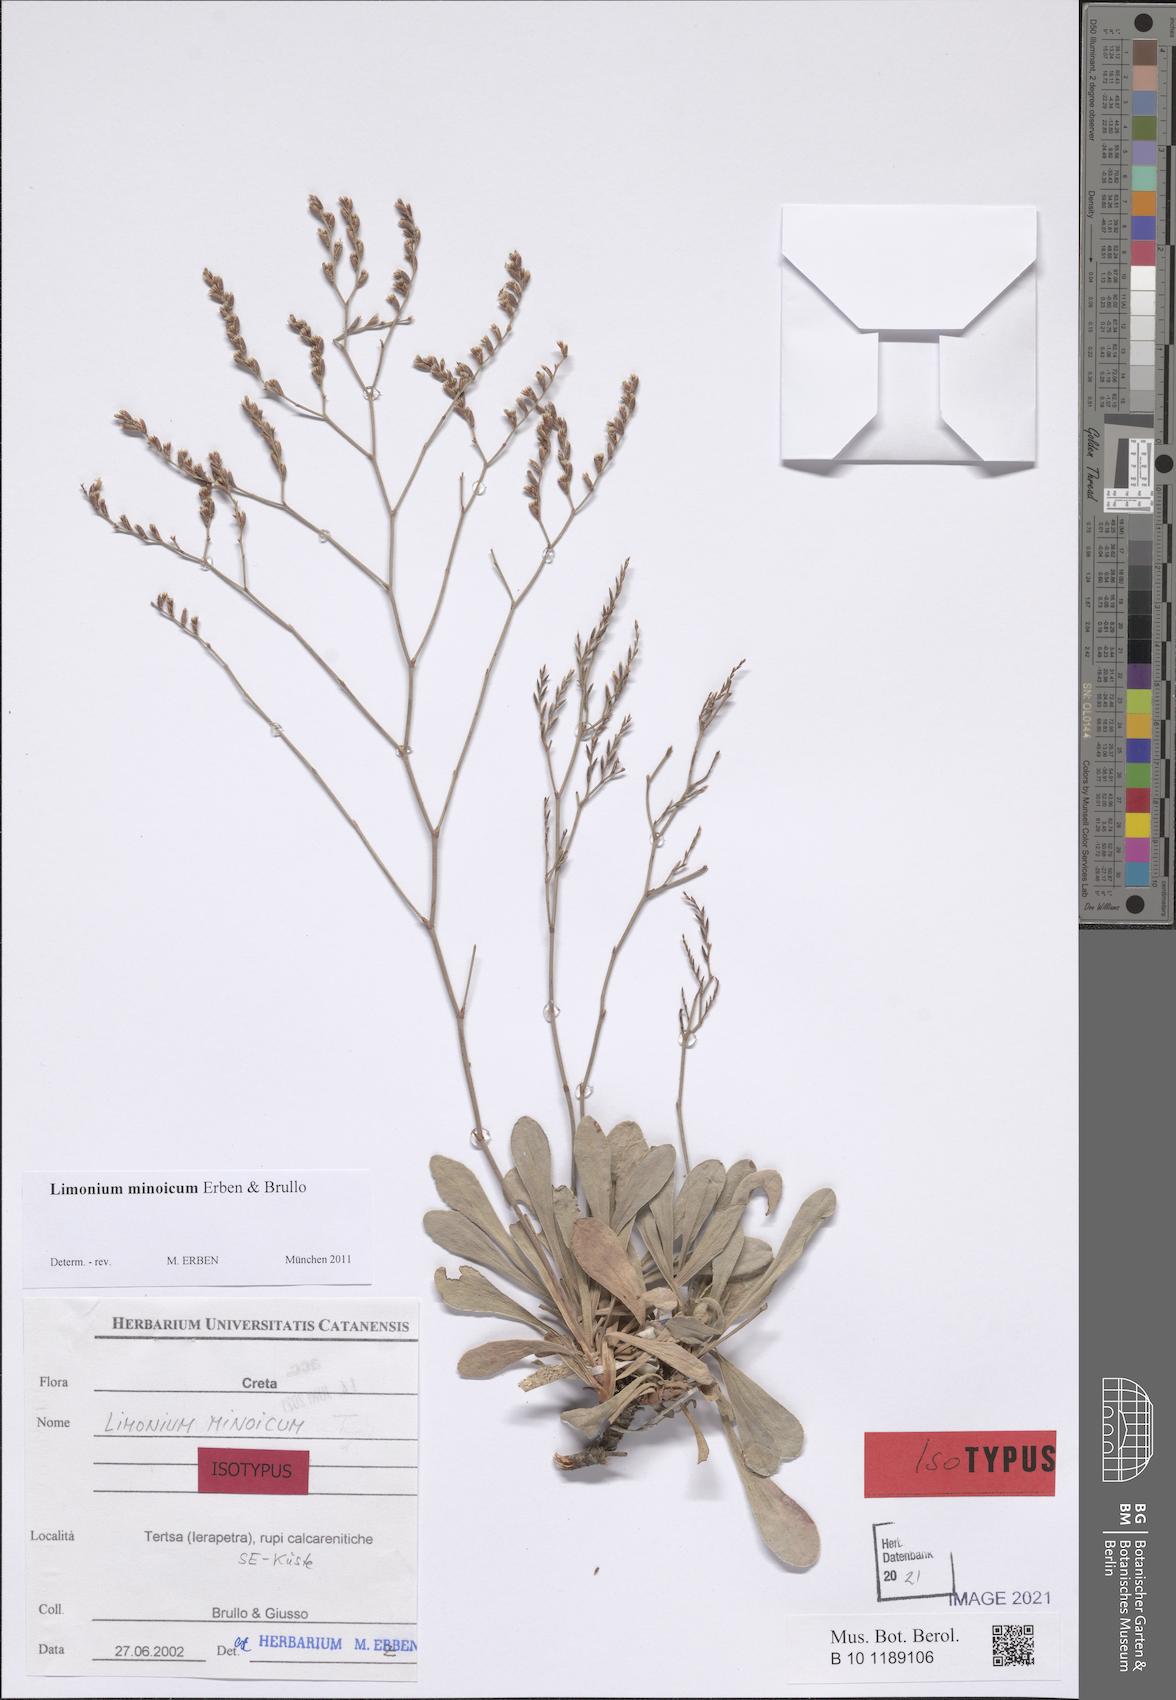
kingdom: Plantae
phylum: Tracheophyta
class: Magnoliopsida
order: Caryophyllales
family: Plumbaginaceae
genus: Limonium
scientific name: Limonium minoicum
